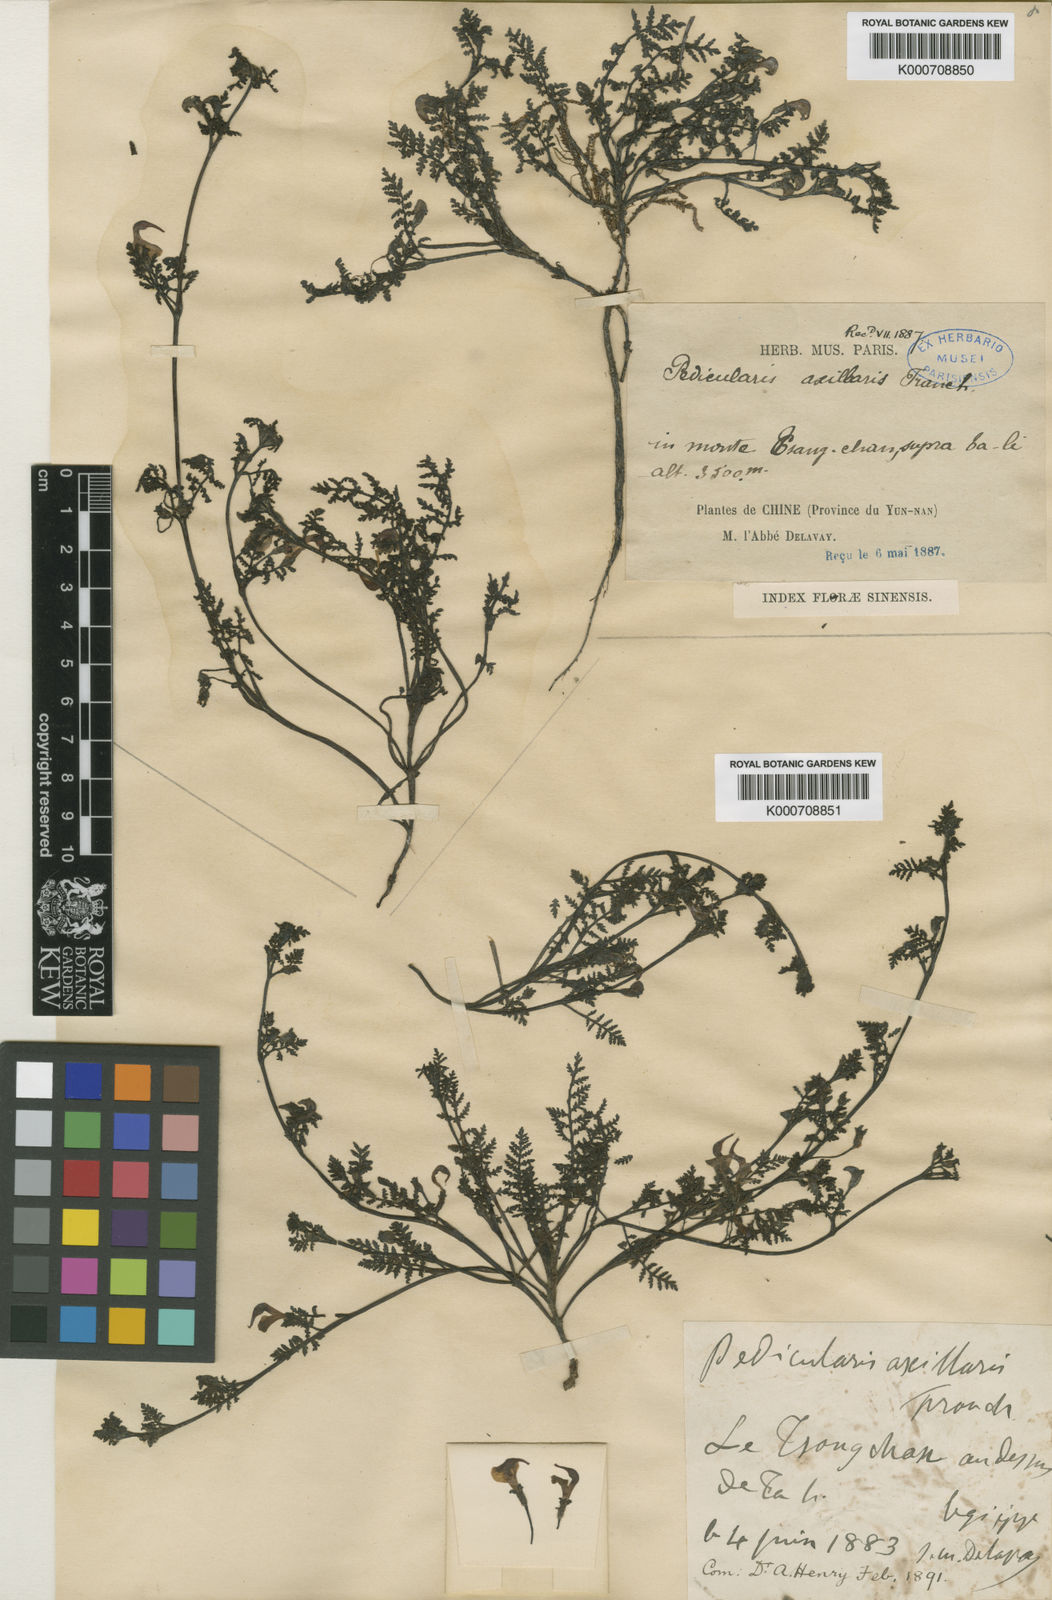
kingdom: Plantae
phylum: Tracheophyta
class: Magnoliopsida
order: Lamiales
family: Orobanchaceae
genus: Pedicularis
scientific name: Pedicularis axillaris
